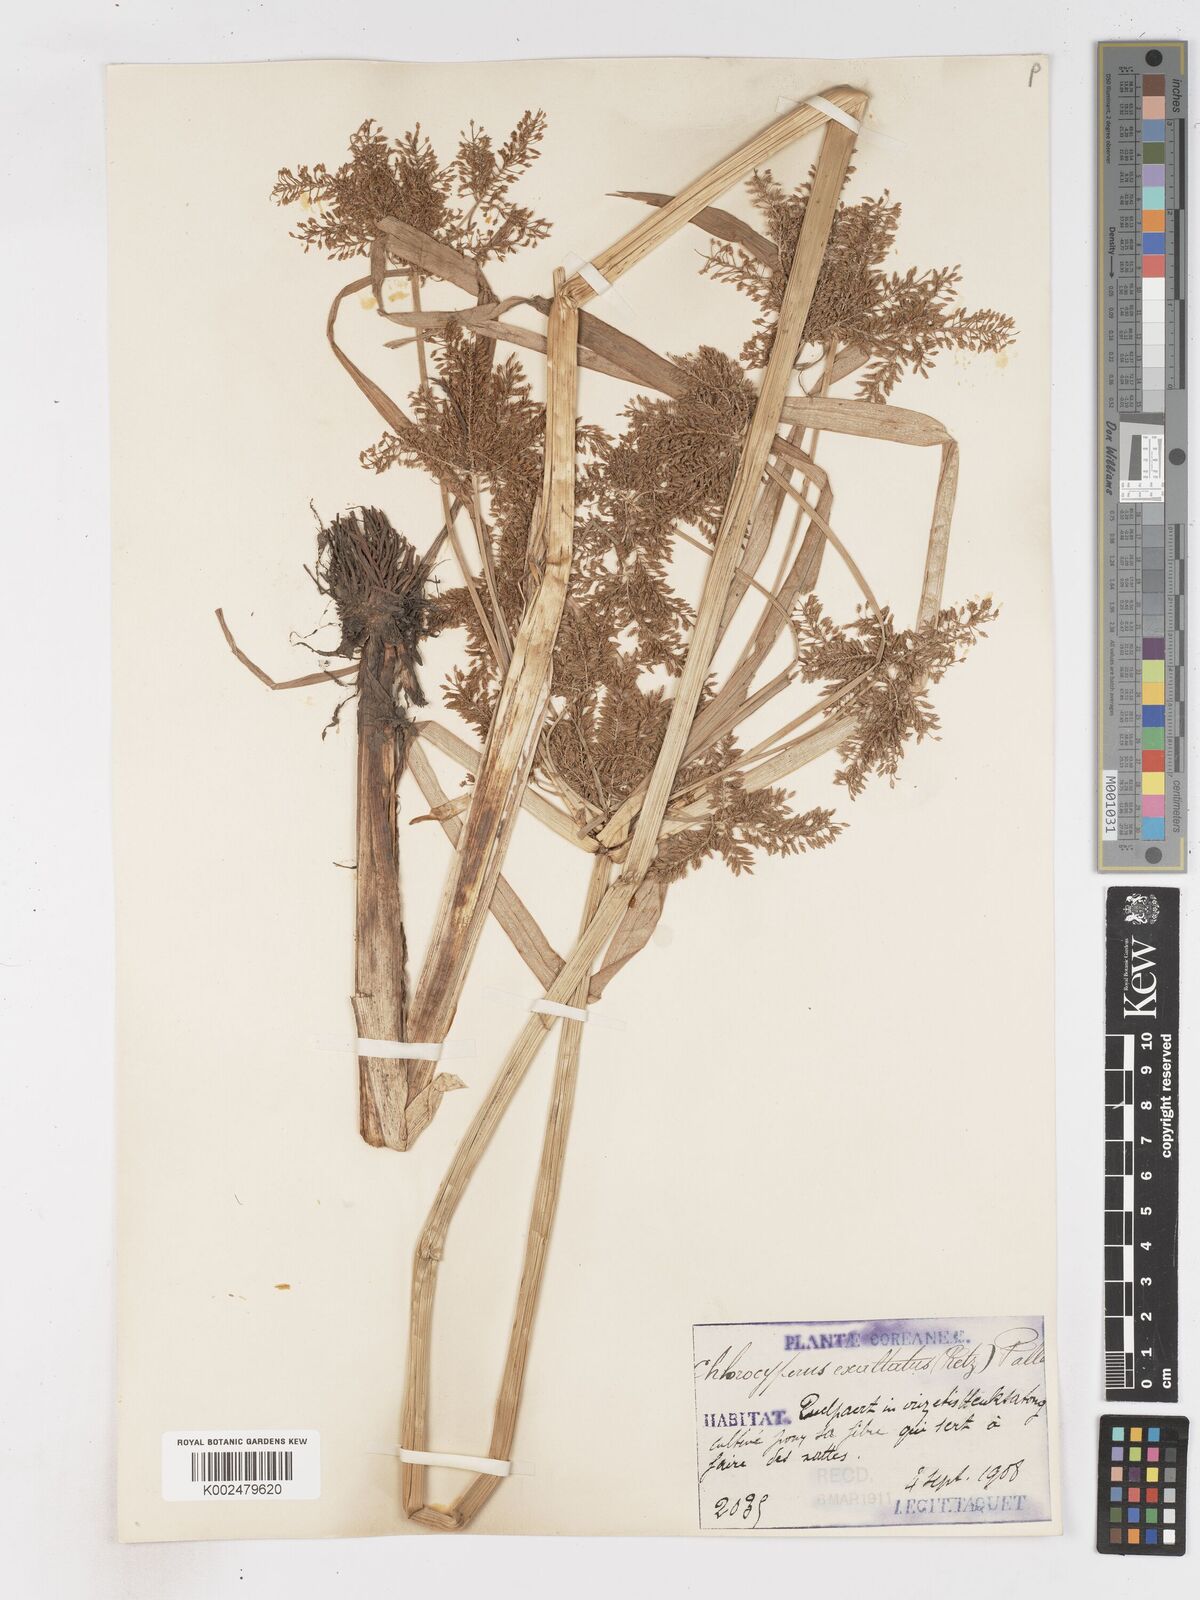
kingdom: Plantae
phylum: Tracheophyta
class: Liliopsida
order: Poales
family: Cyperaceae
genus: Cyperus
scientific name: Cyperus exaltatus
